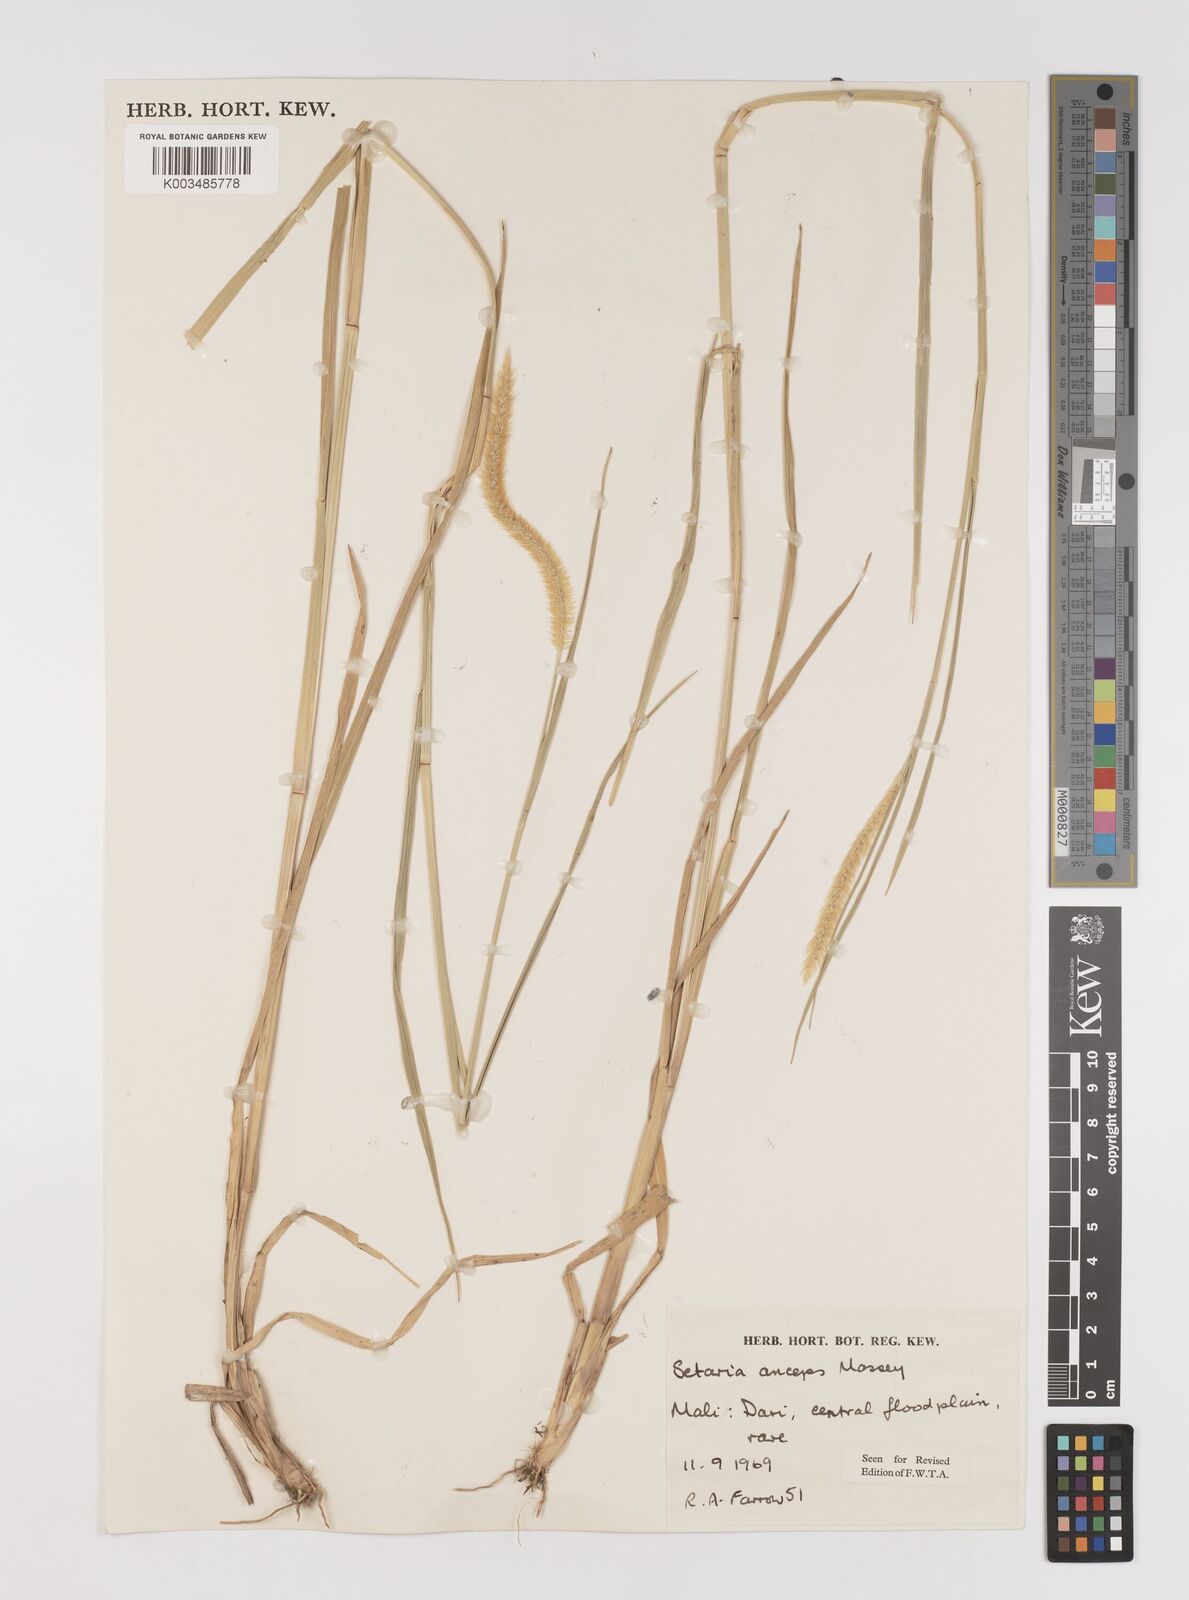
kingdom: Plantae
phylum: Tracheophyta
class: Liliopsida
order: Poales
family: Poaceae
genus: Setaria
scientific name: Setaria sphacelata
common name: African bristlegrass
